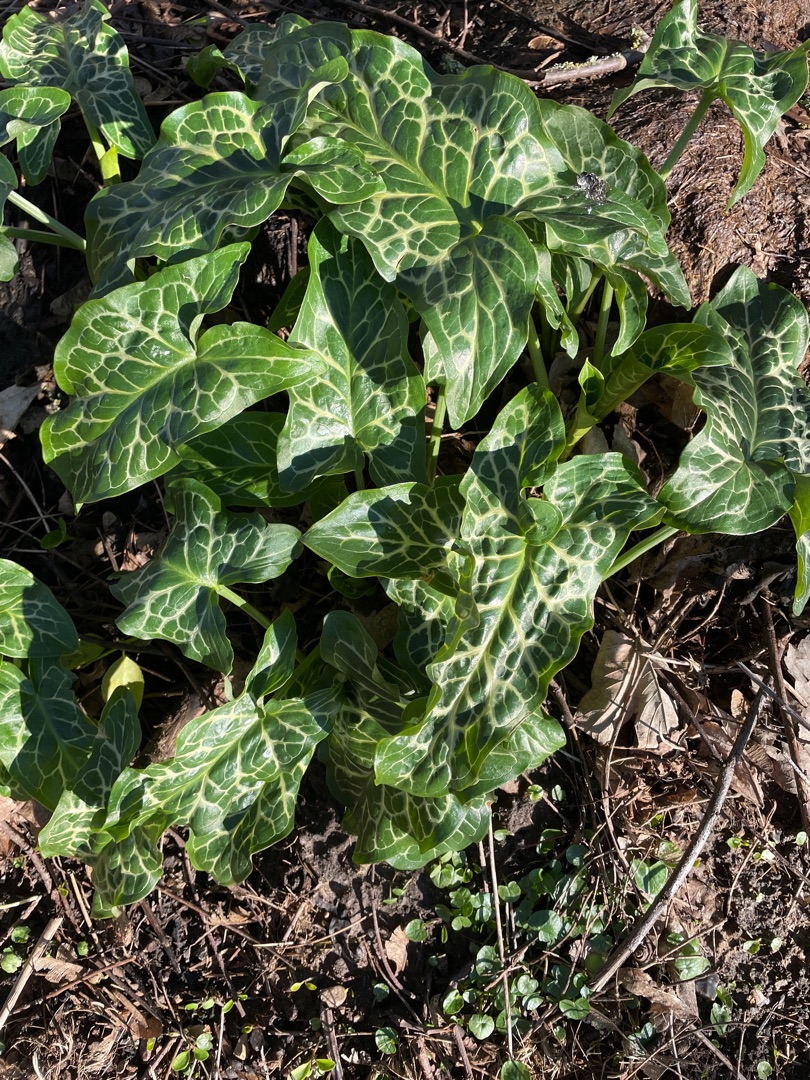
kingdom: Plantae
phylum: Tracheophyta
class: Liliopsida
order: Alismatales
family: Araceae
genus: Arum
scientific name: Arum italicum
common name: Italiensk arum
